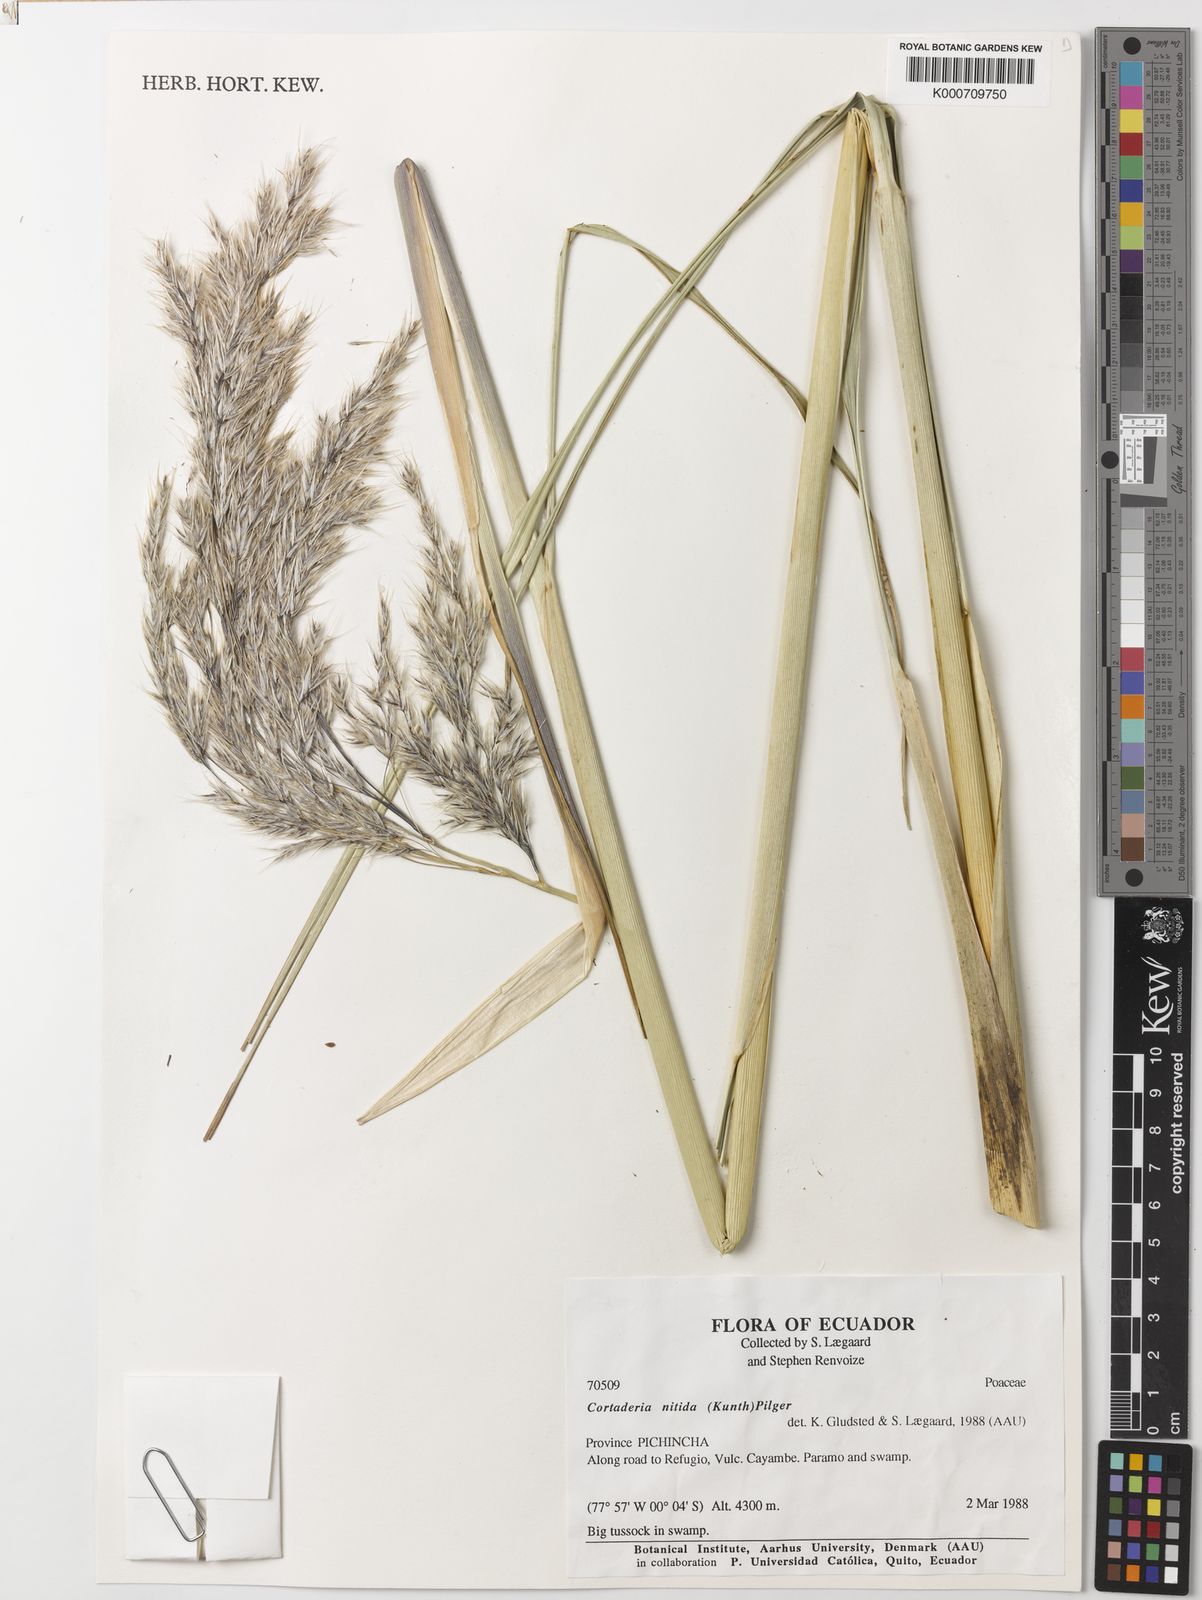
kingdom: Plantae
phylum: Tracheophyta
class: Liliopsida
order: Poales
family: Poaceae
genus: Cortaderia
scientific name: Cortaderia nitida
